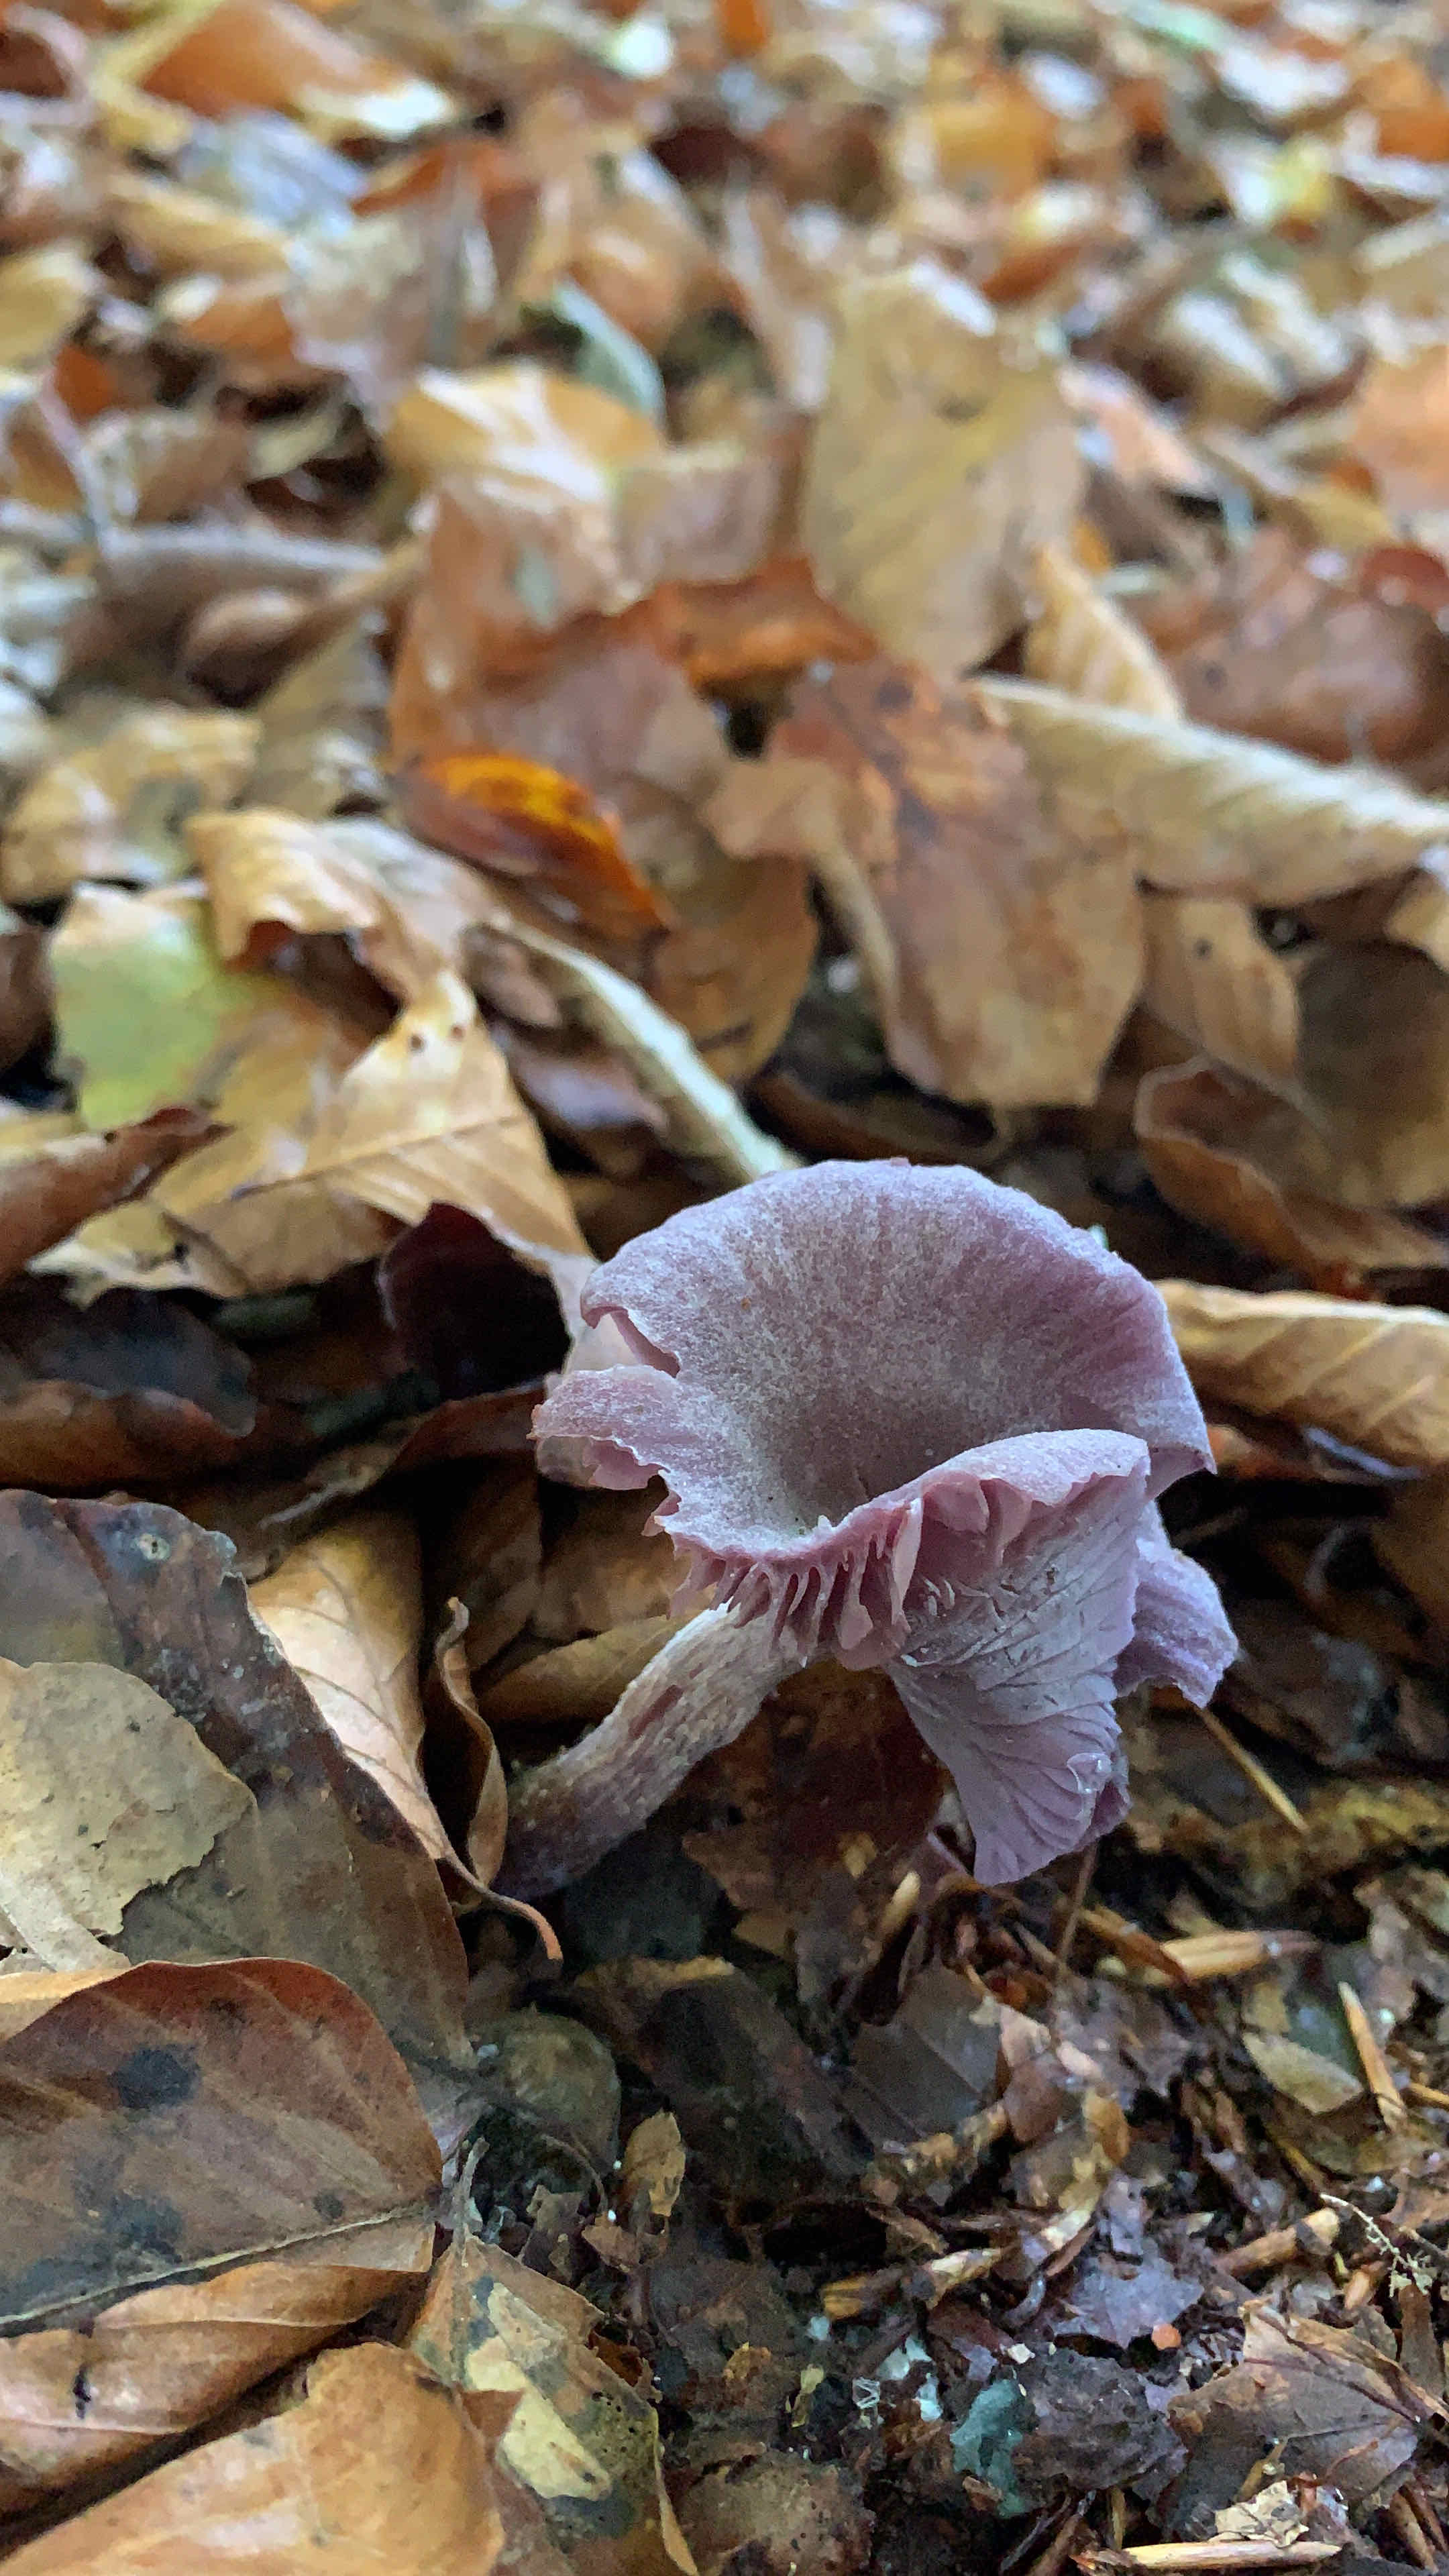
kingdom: Fungi
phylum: Basidiomycota
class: Agaricomycetes
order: Agaricales
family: Hydnangiaceae
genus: Laccaria
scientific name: Laccaria amethystina
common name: violet ametysthat
